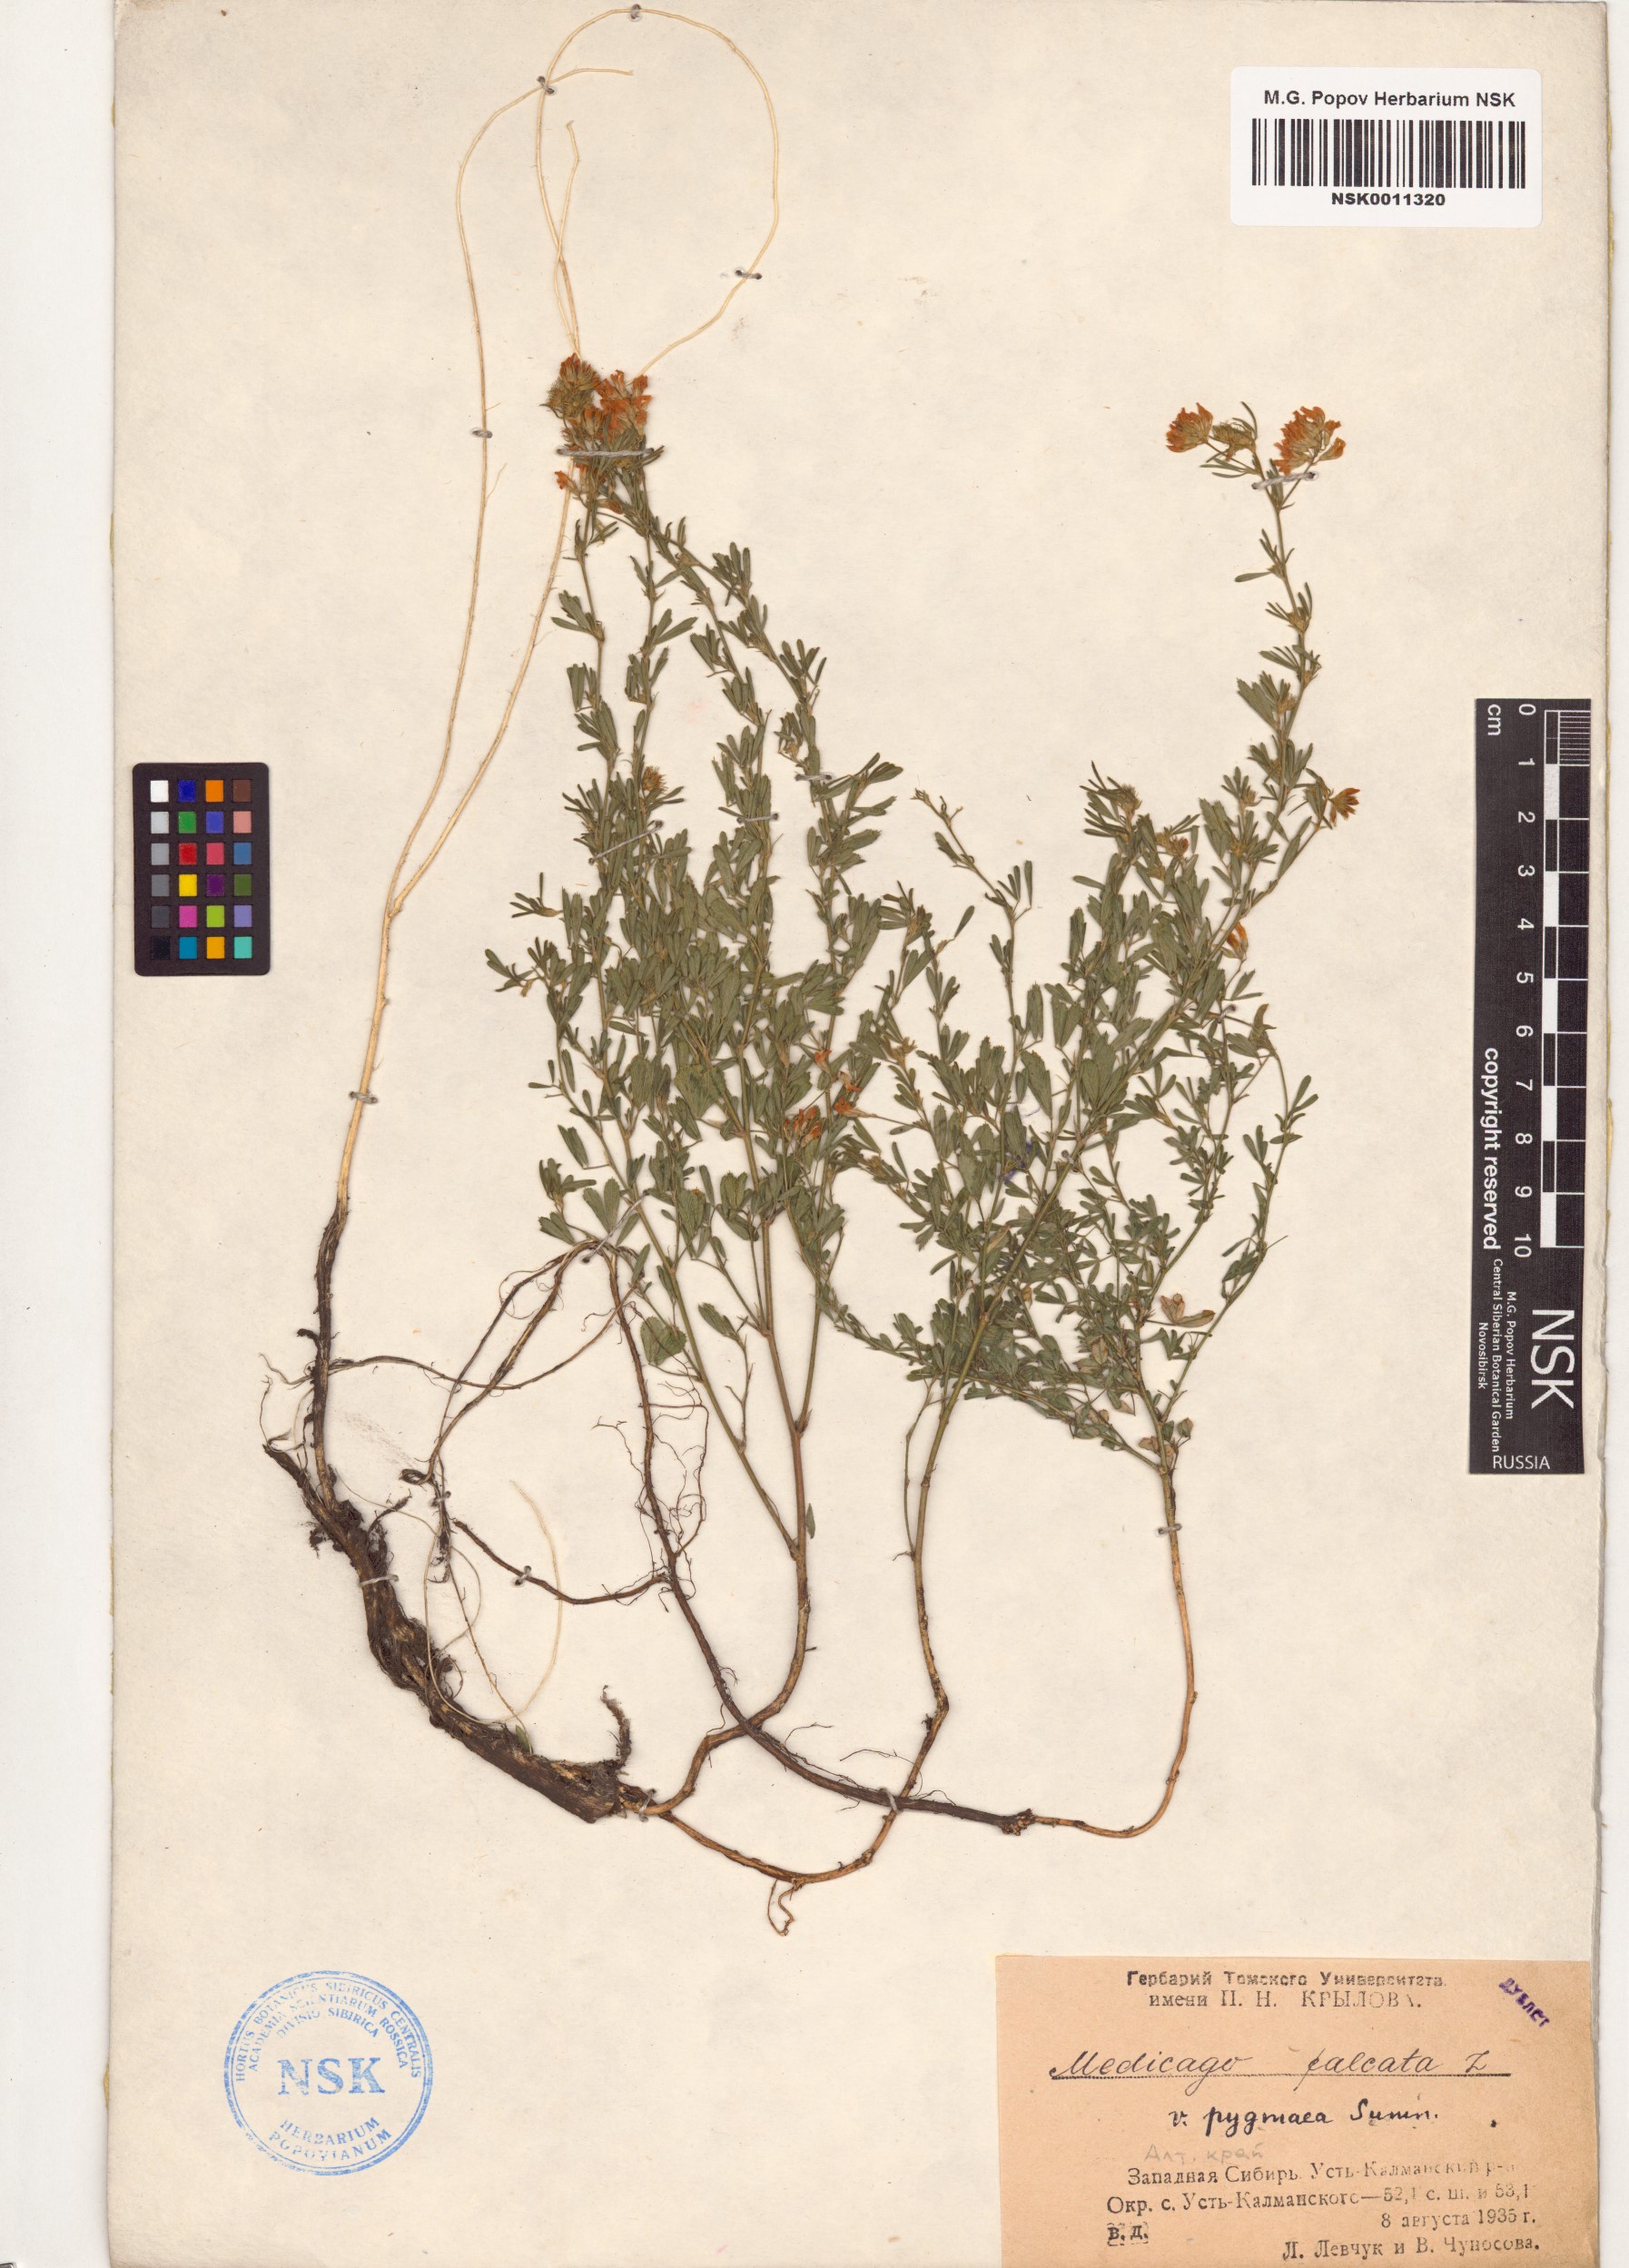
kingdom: Plantae
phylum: Tracheophyta
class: Magnoliopsida
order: Fabales
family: Fabaceae
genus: Medicago
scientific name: Medicago falcata
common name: Sickle medick
